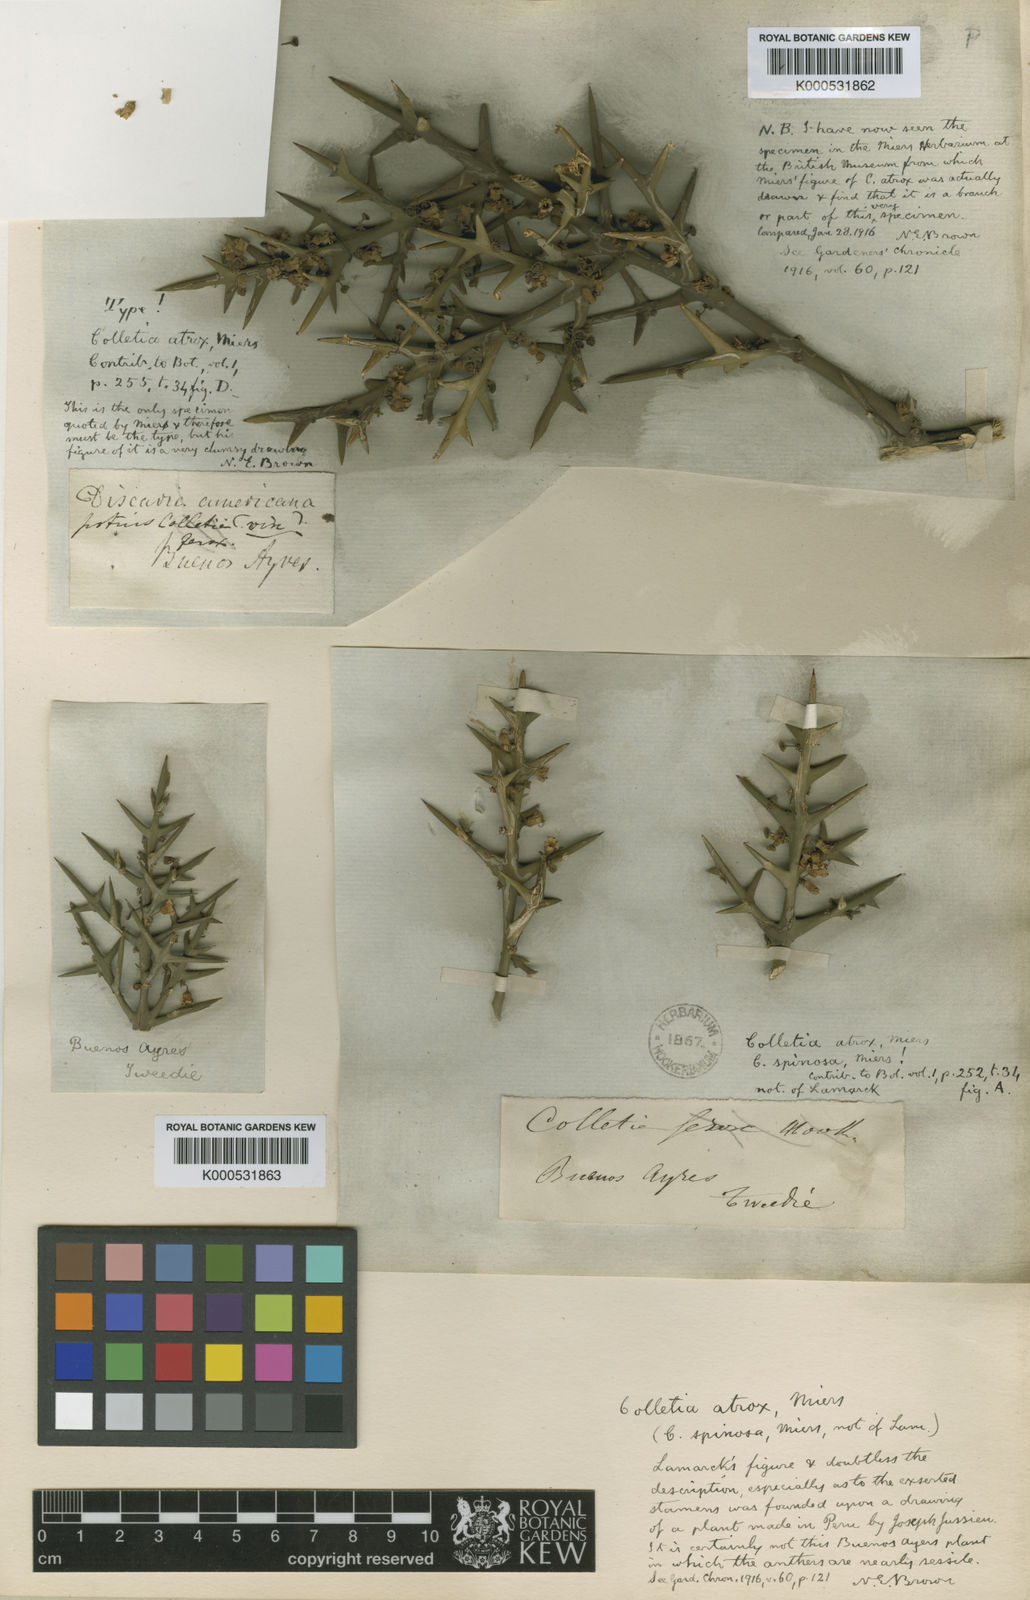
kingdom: Plantae
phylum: Tracheophyta
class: Magnoliopsida
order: Rosales
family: Rhamnaceae
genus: Colletia
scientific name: Colletia spinosissima
